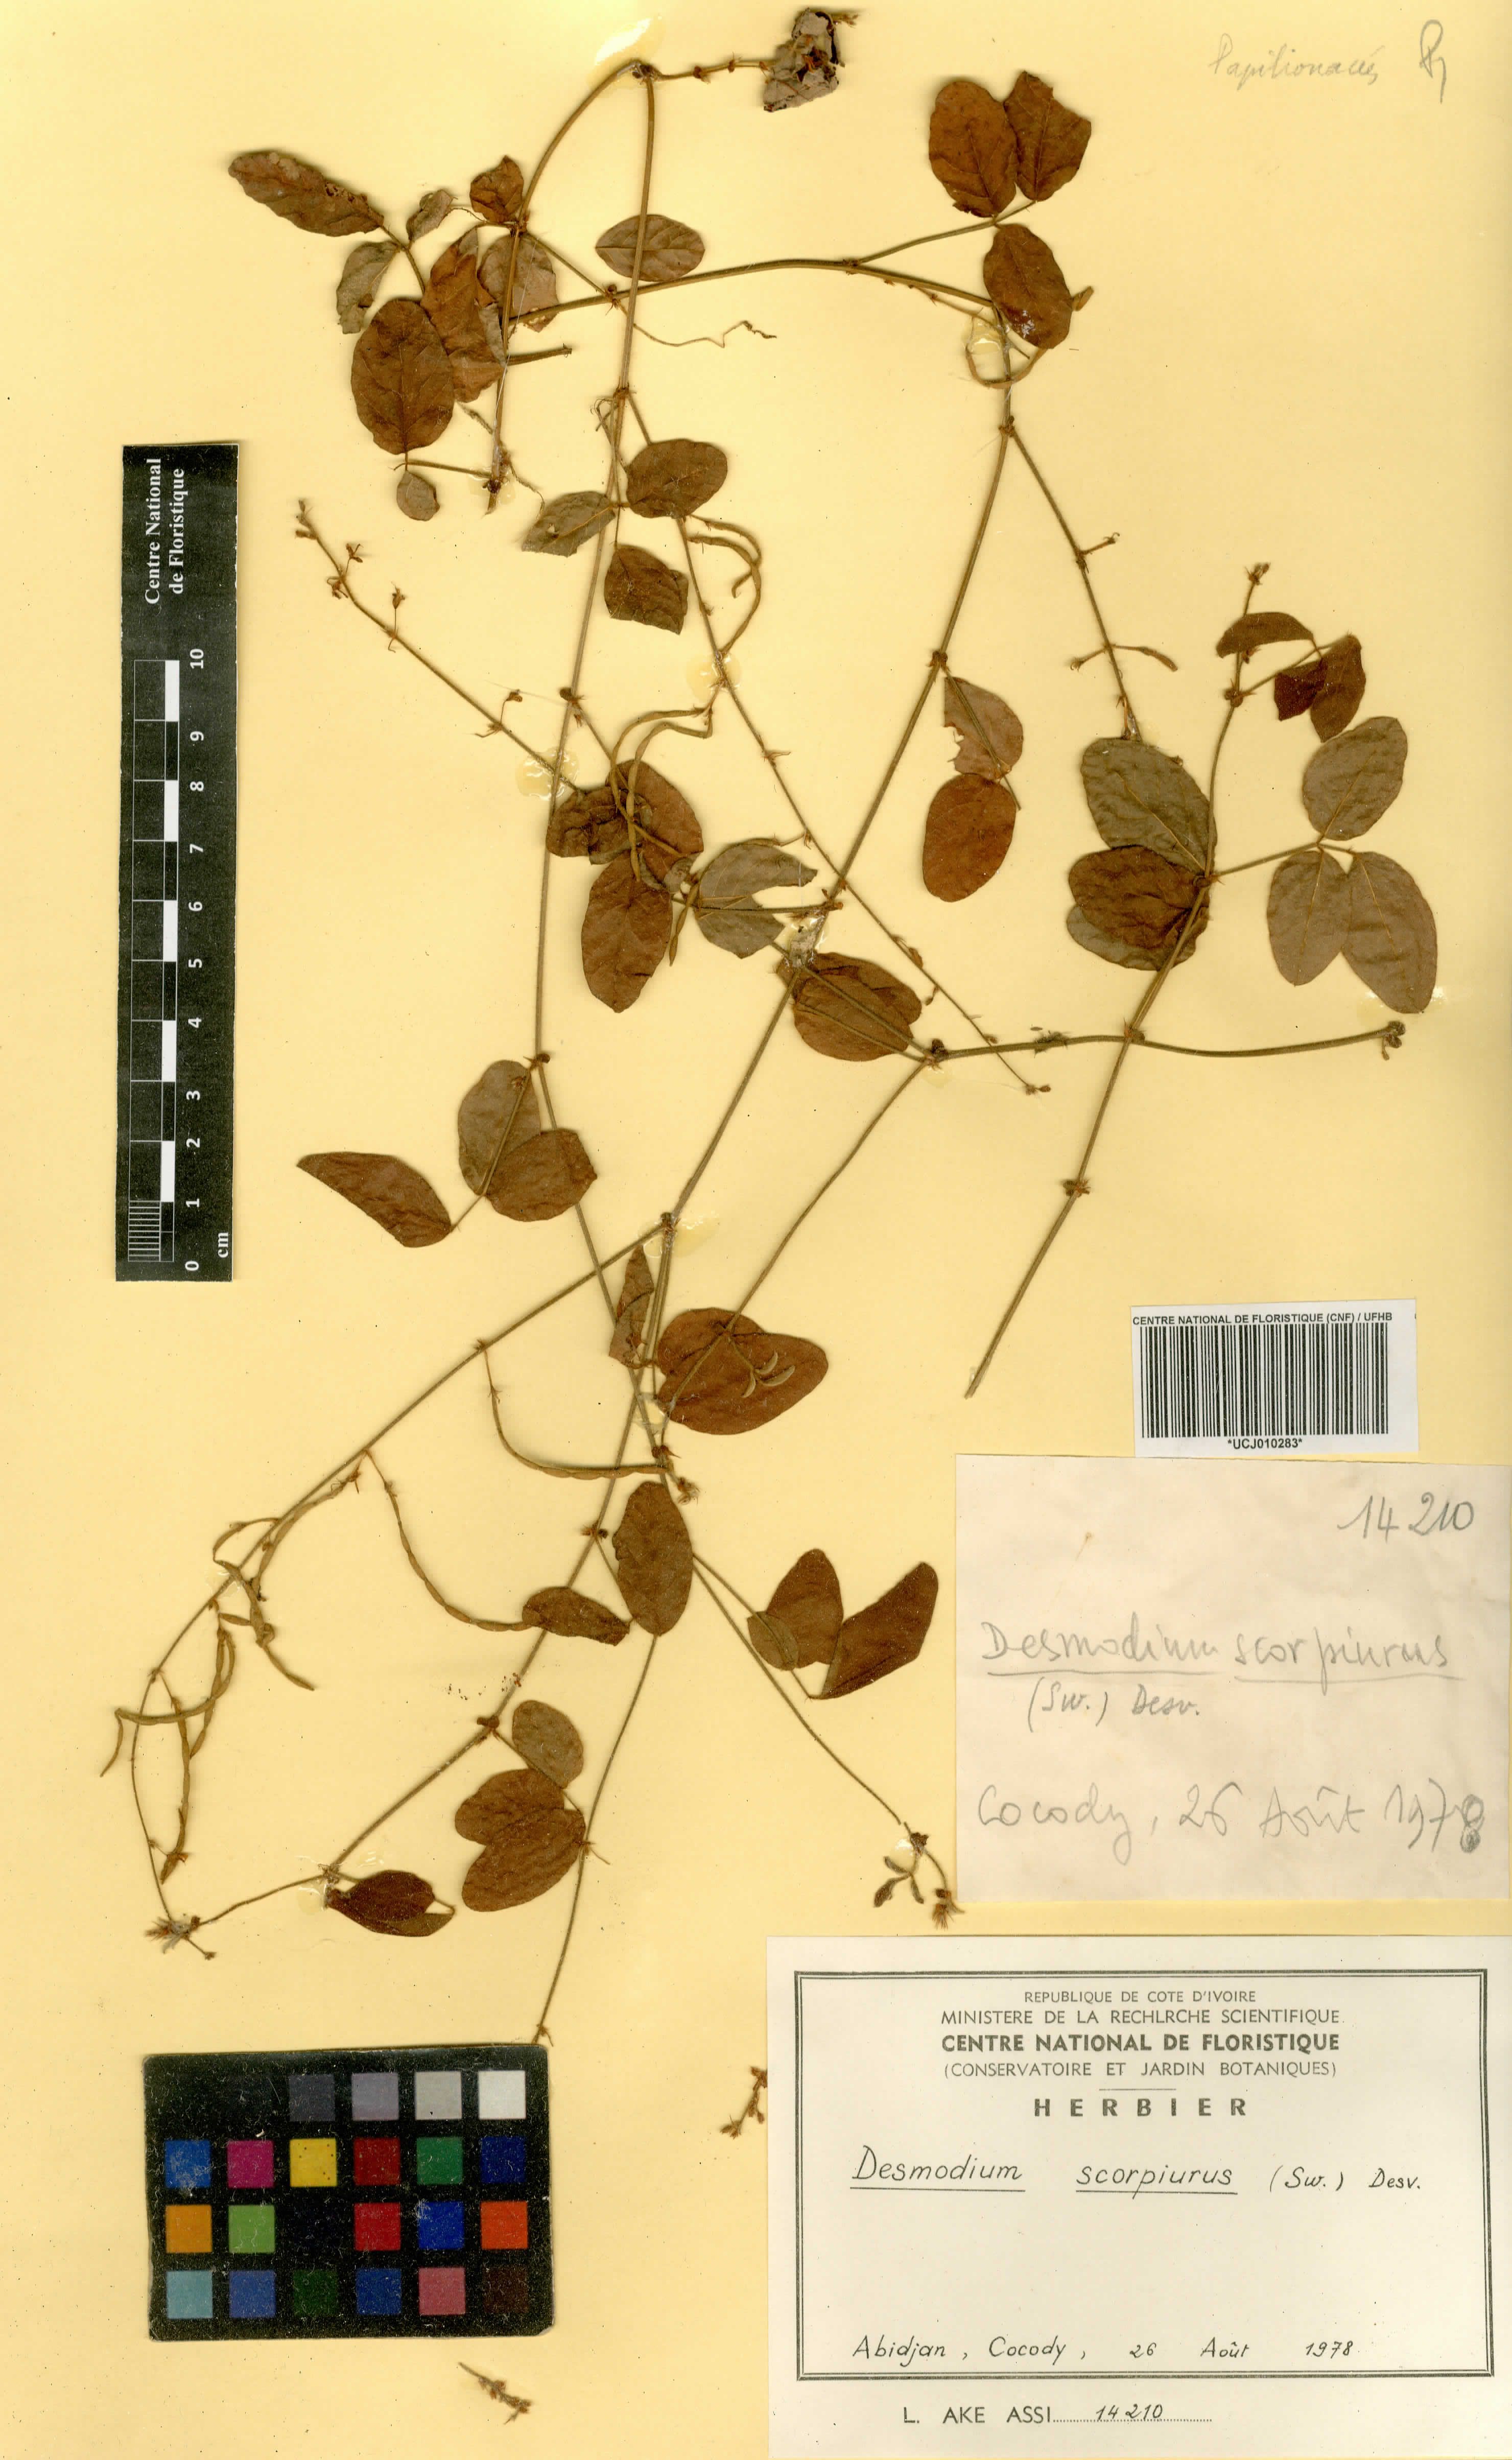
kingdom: Plantae
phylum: Tracheophyta
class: Magnoliopsida
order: Fabales
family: Fabaceae
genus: Desmodium
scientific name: Desmodium scorpiurus
